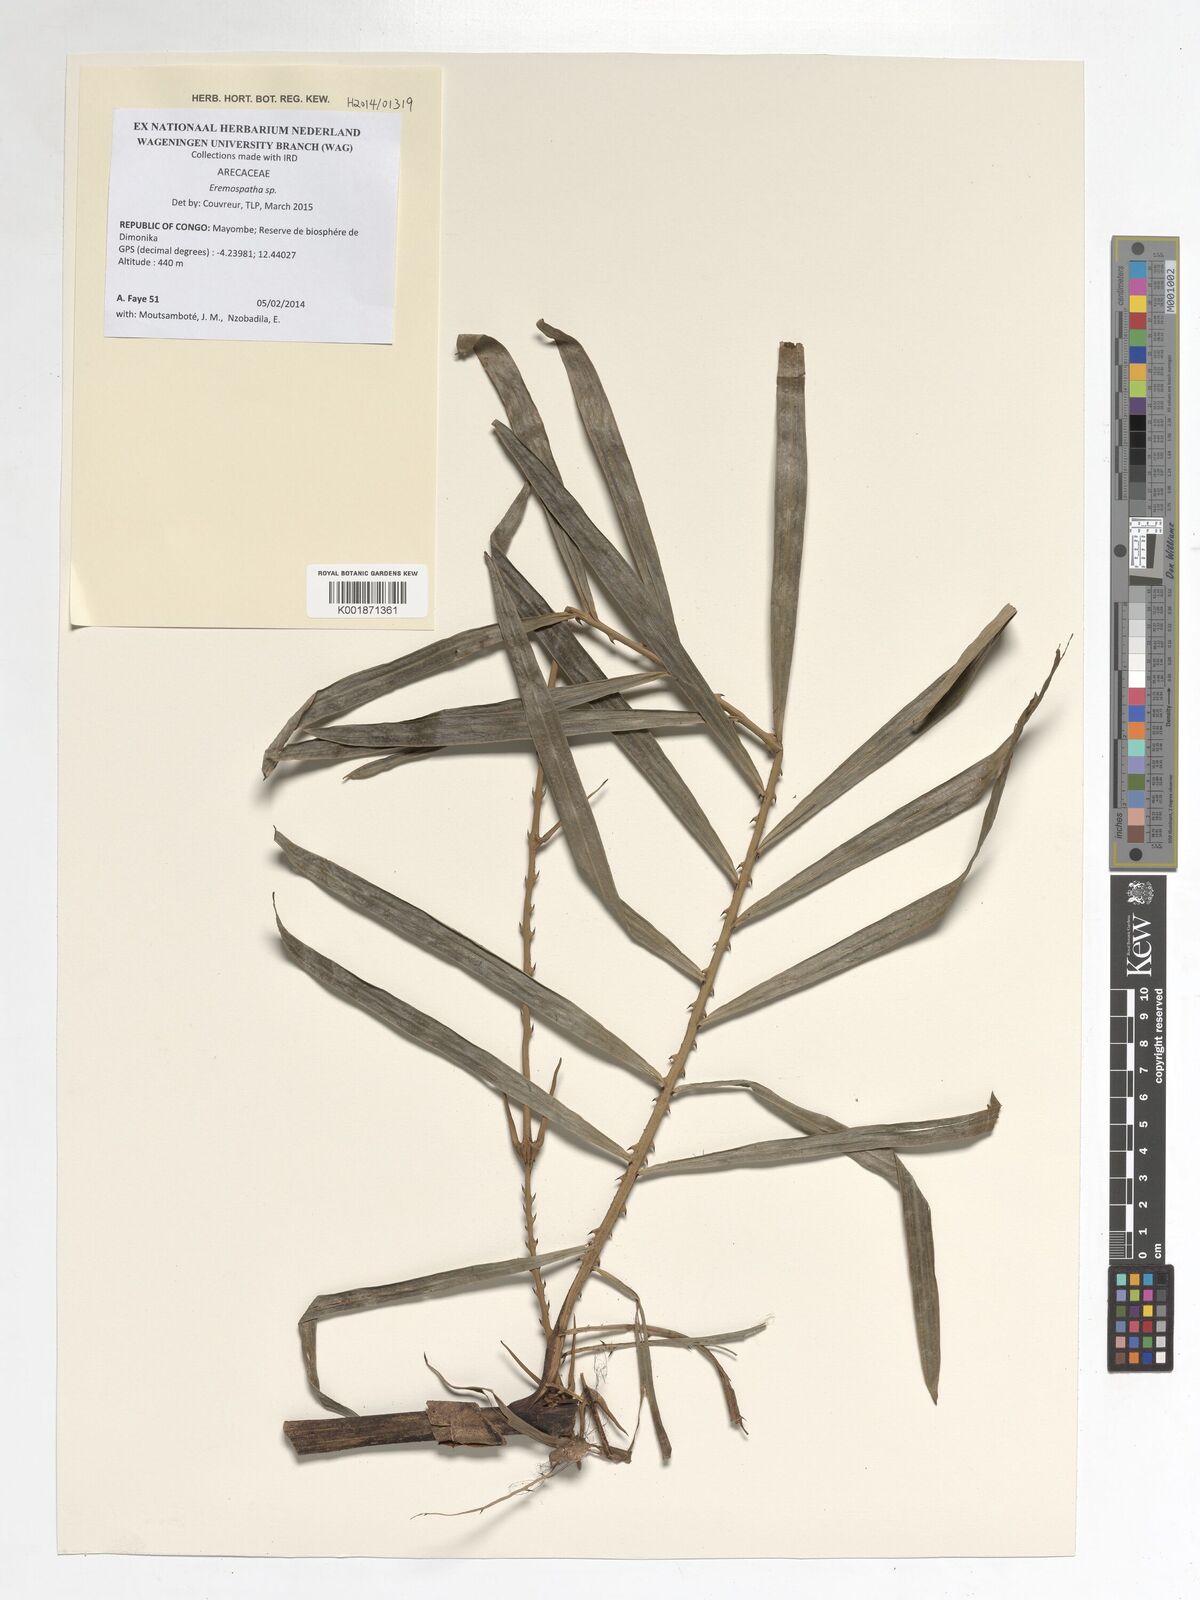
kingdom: Plantae
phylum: Tracheophyta
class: Liliopsida
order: Arecales
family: Arecaceae
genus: Eremospatha
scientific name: Eremospatha
